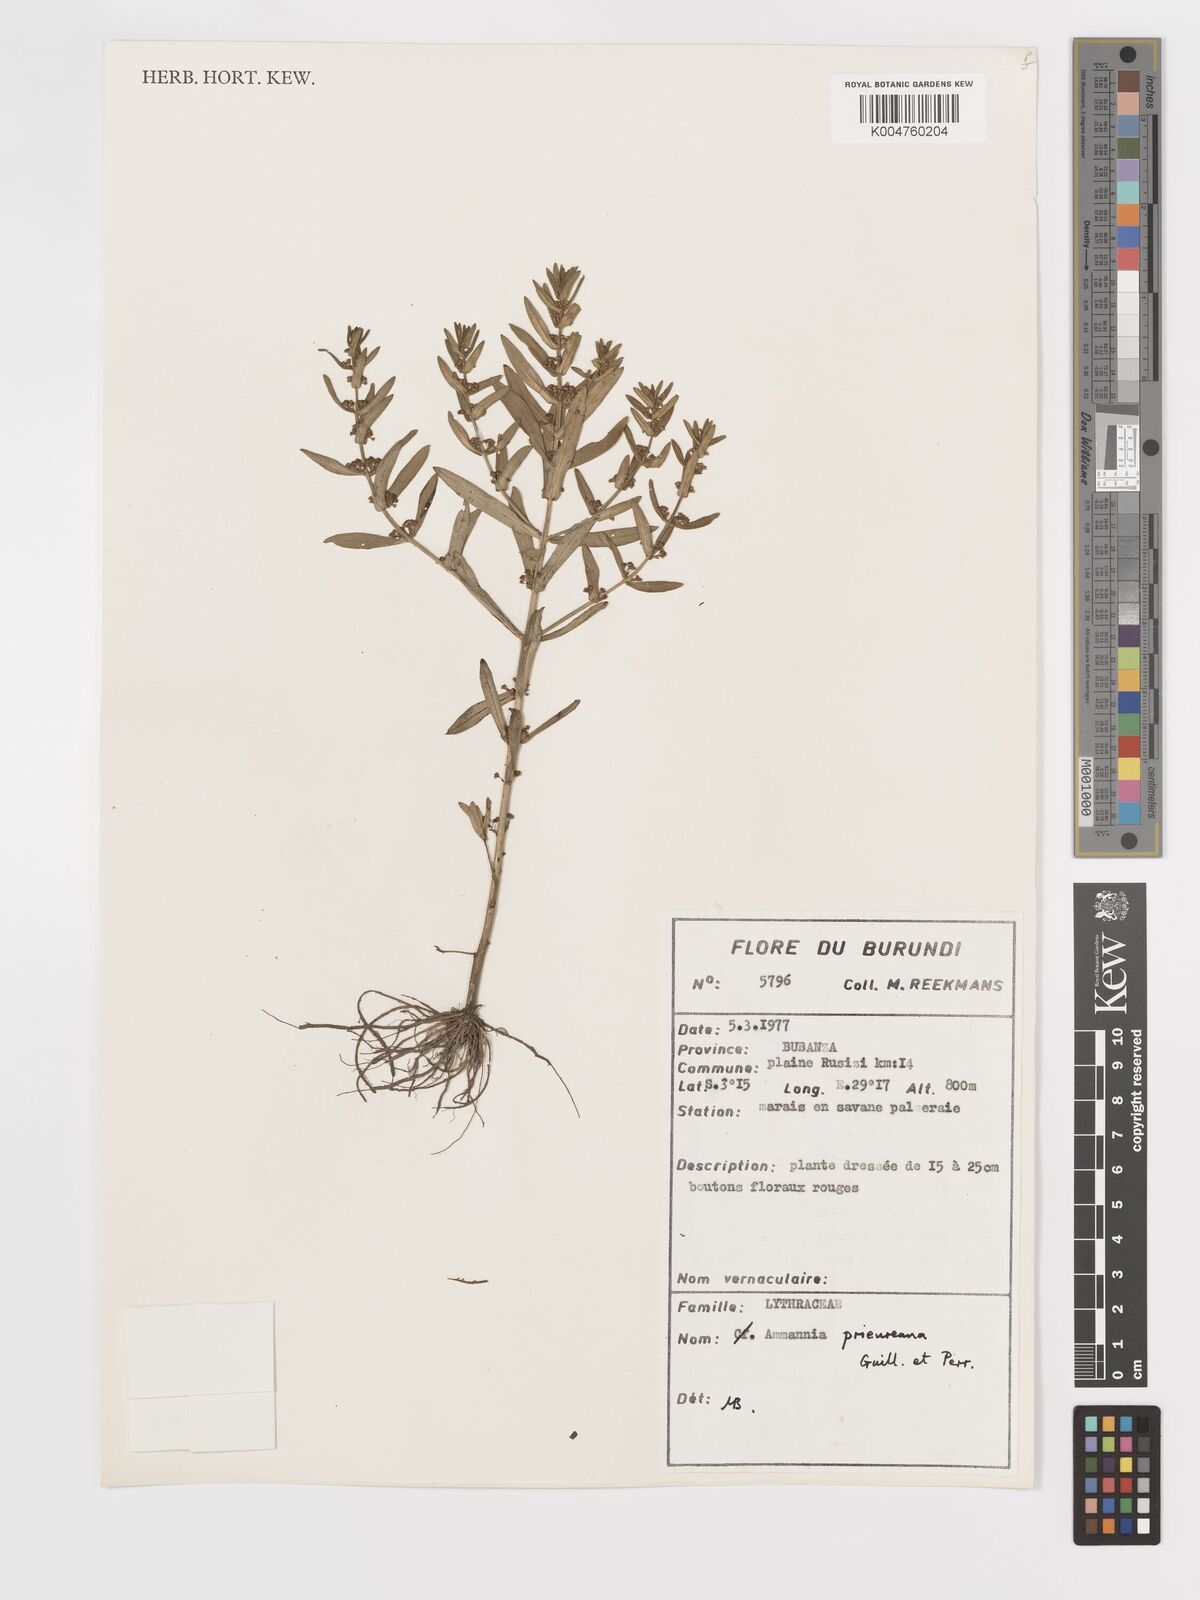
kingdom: Plantae
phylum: Tracheophyta
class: Magnoliopsida
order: Myrtales
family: Lythraceae
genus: Ammannia
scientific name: Ammannia prieuriana
